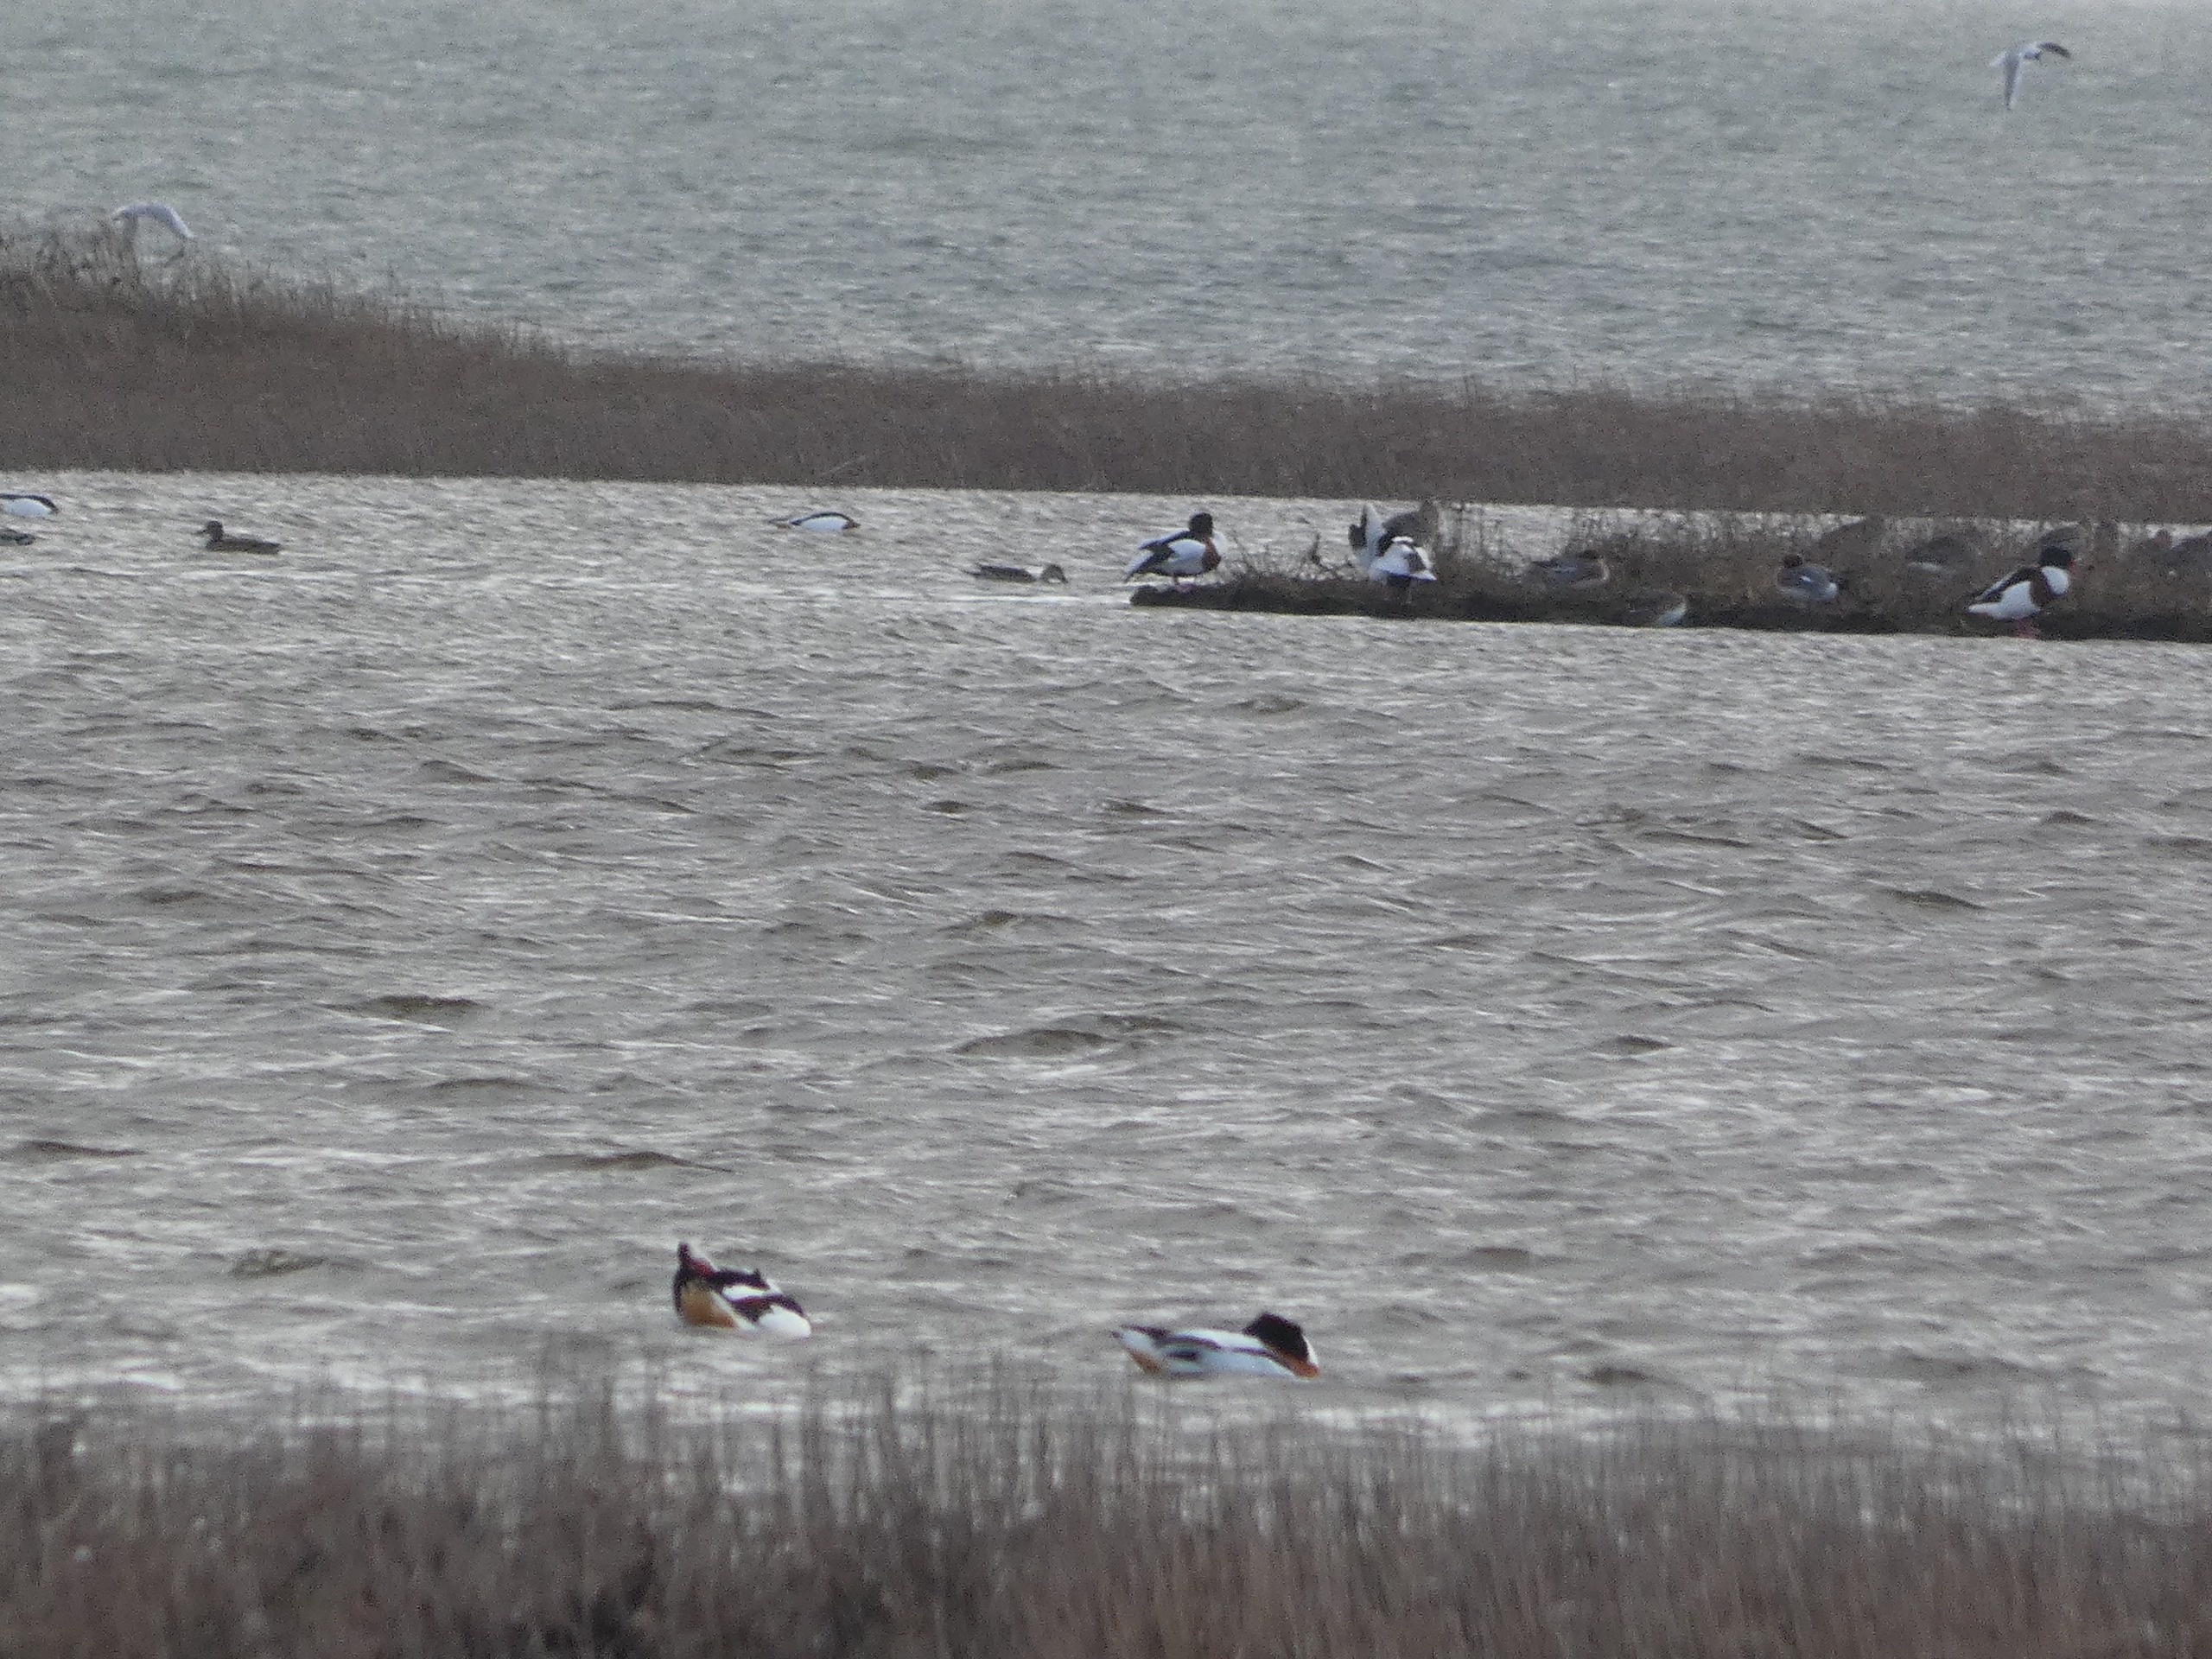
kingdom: Animalia
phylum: Chordata
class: Aves
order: Anseriformes
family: Anatidae
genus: Mareca
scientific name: Mareca penelope
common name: Pibeand
